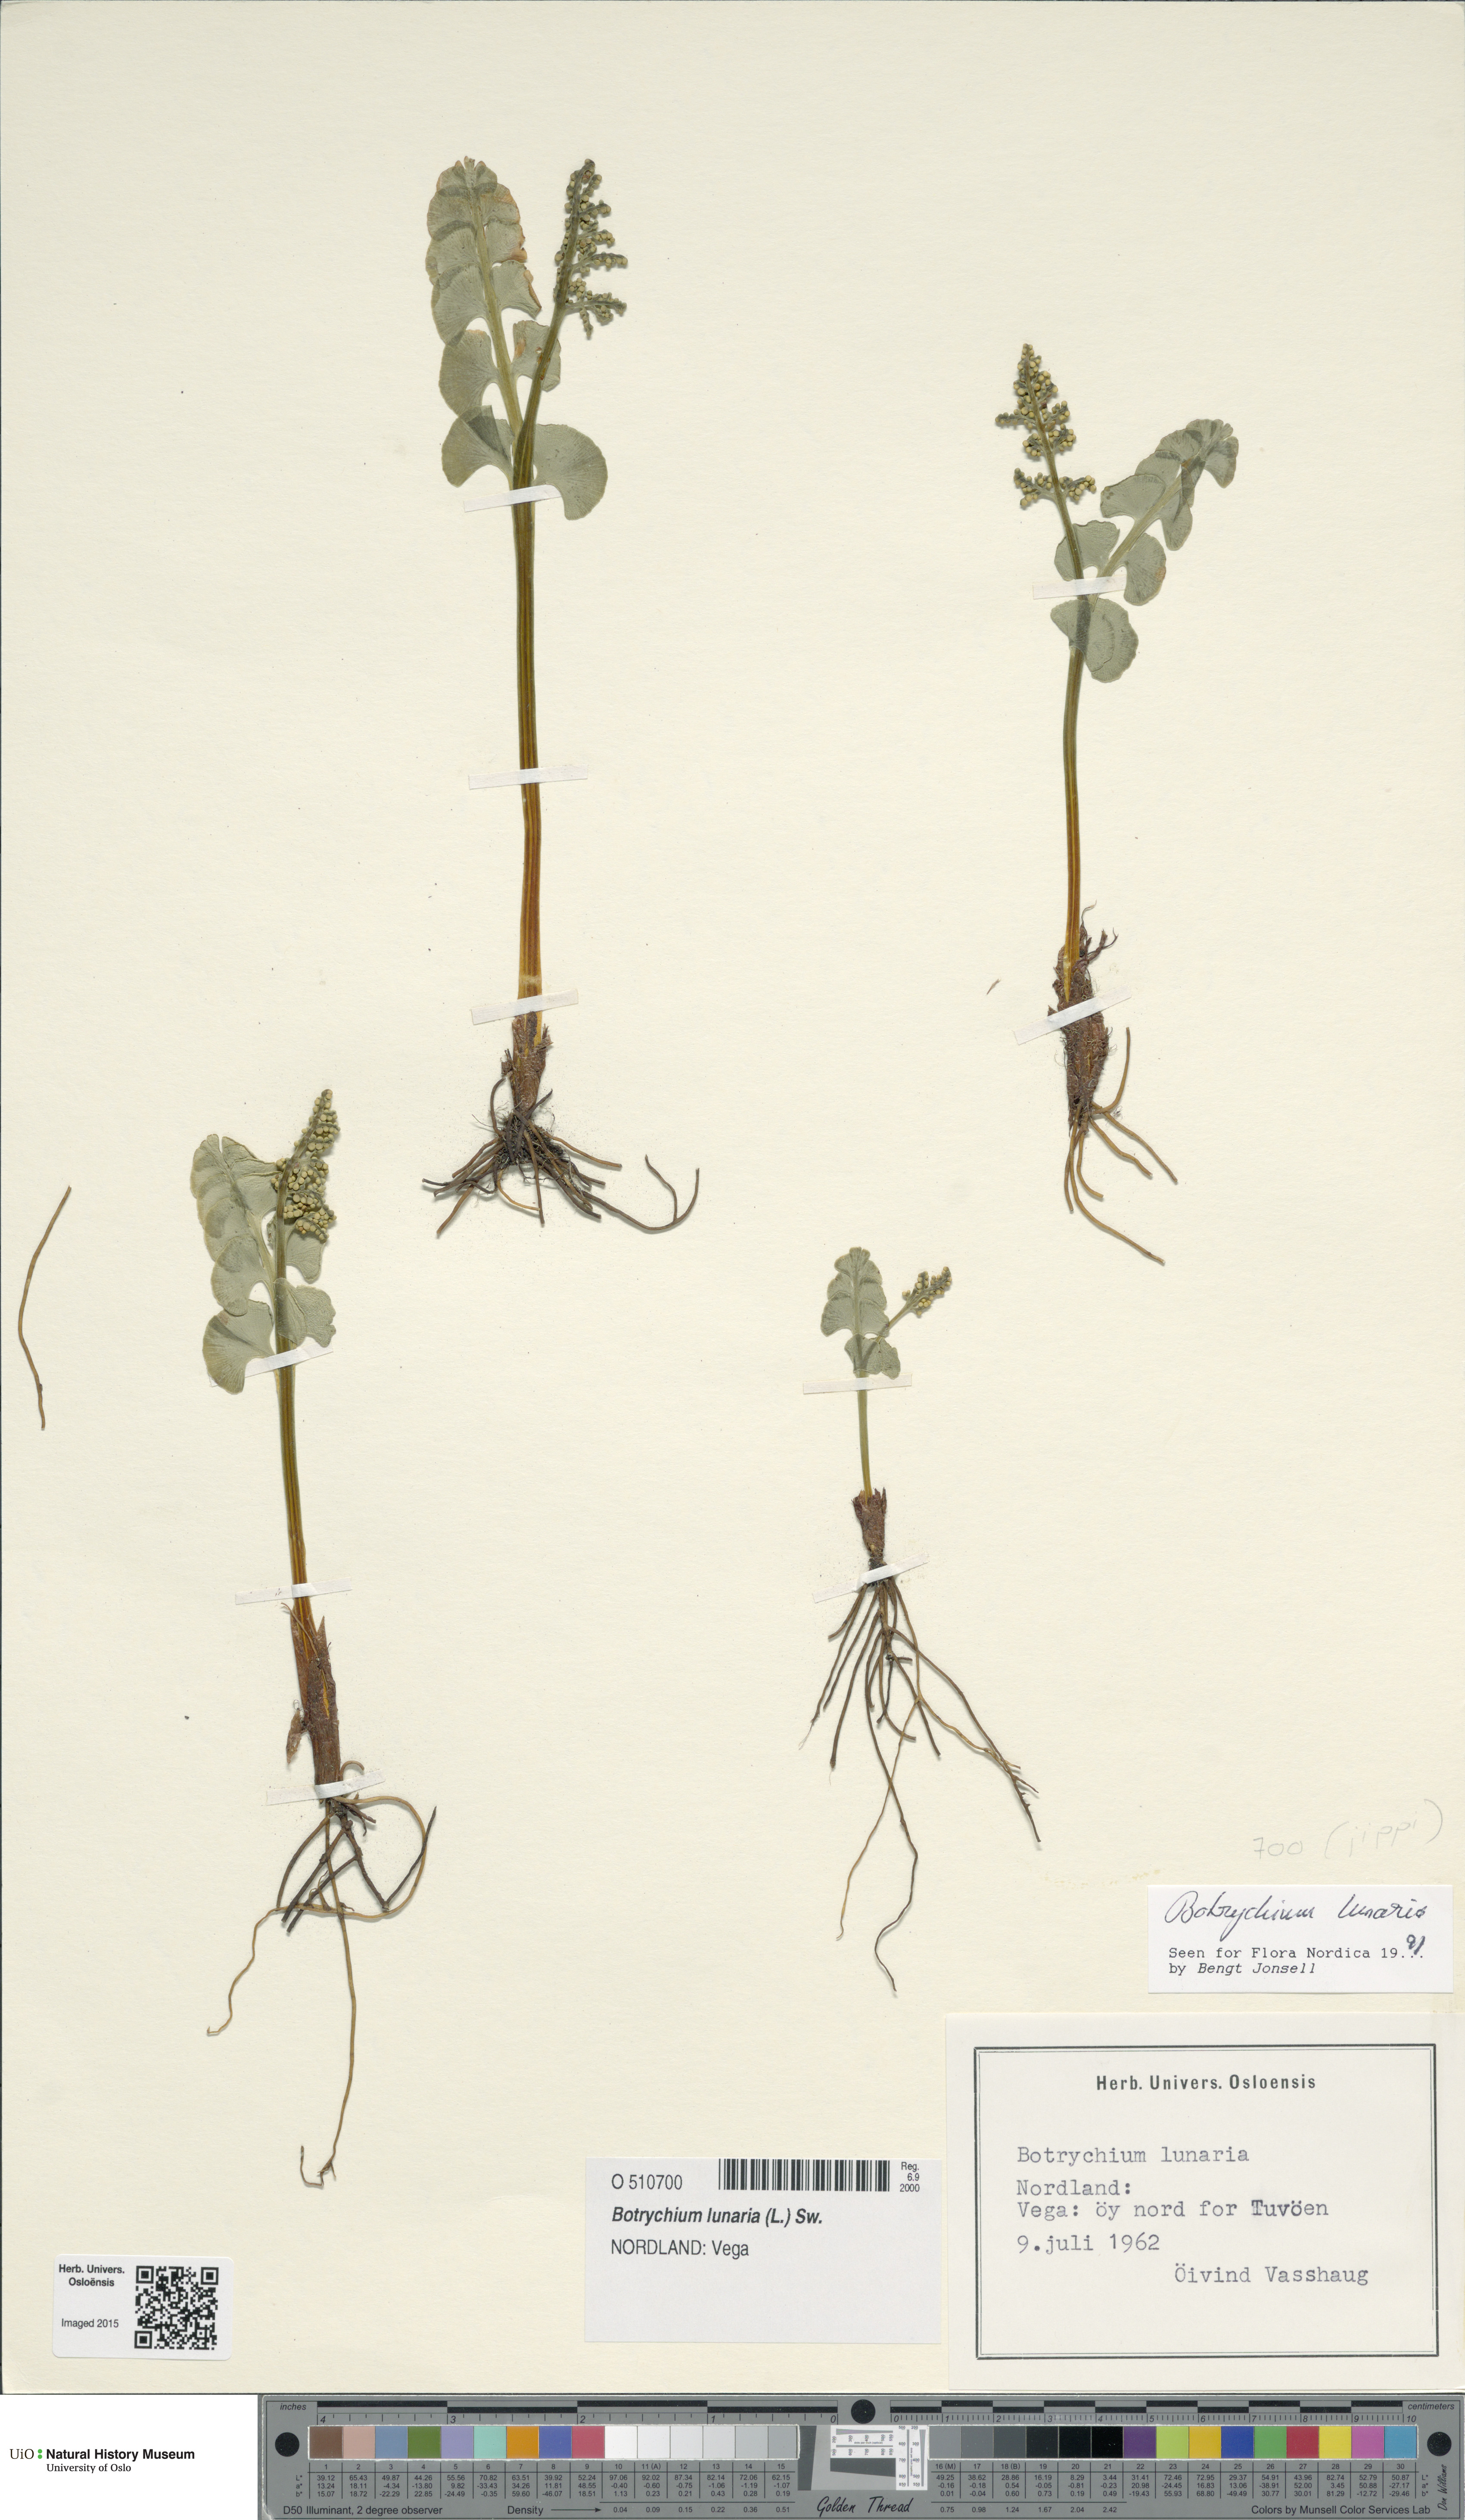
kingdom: Plantae
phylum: Tracheophyta
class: Polypodiopsida
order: Ophioglossales
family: Ophioglossaceae
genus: Botrychium
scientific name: Botrychium lunaria
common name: Moonwort
